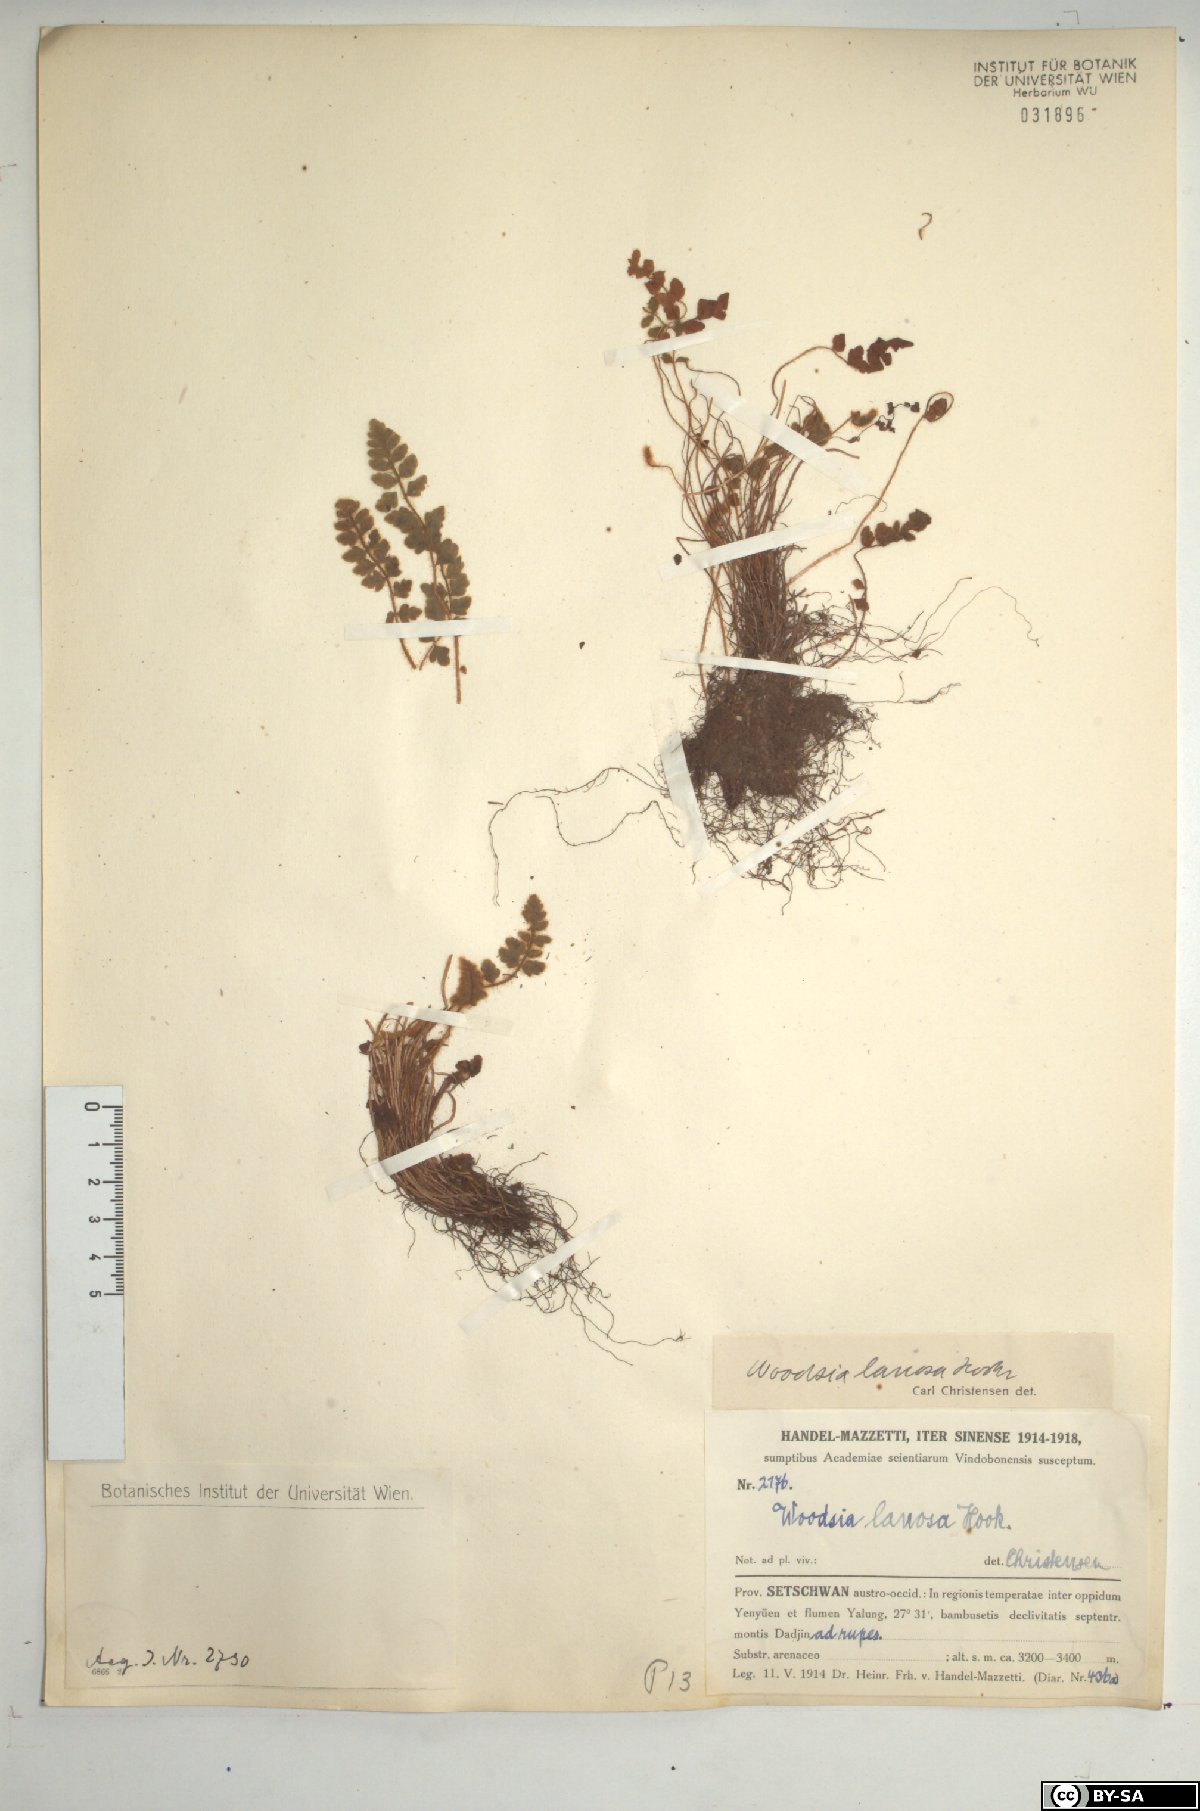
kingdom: Plantae
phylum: Tracheophyta
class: Polypodiopsida
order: Polypodiales
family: Woodsiaceae
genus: Woodsia
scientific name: Woodsia lanosa
